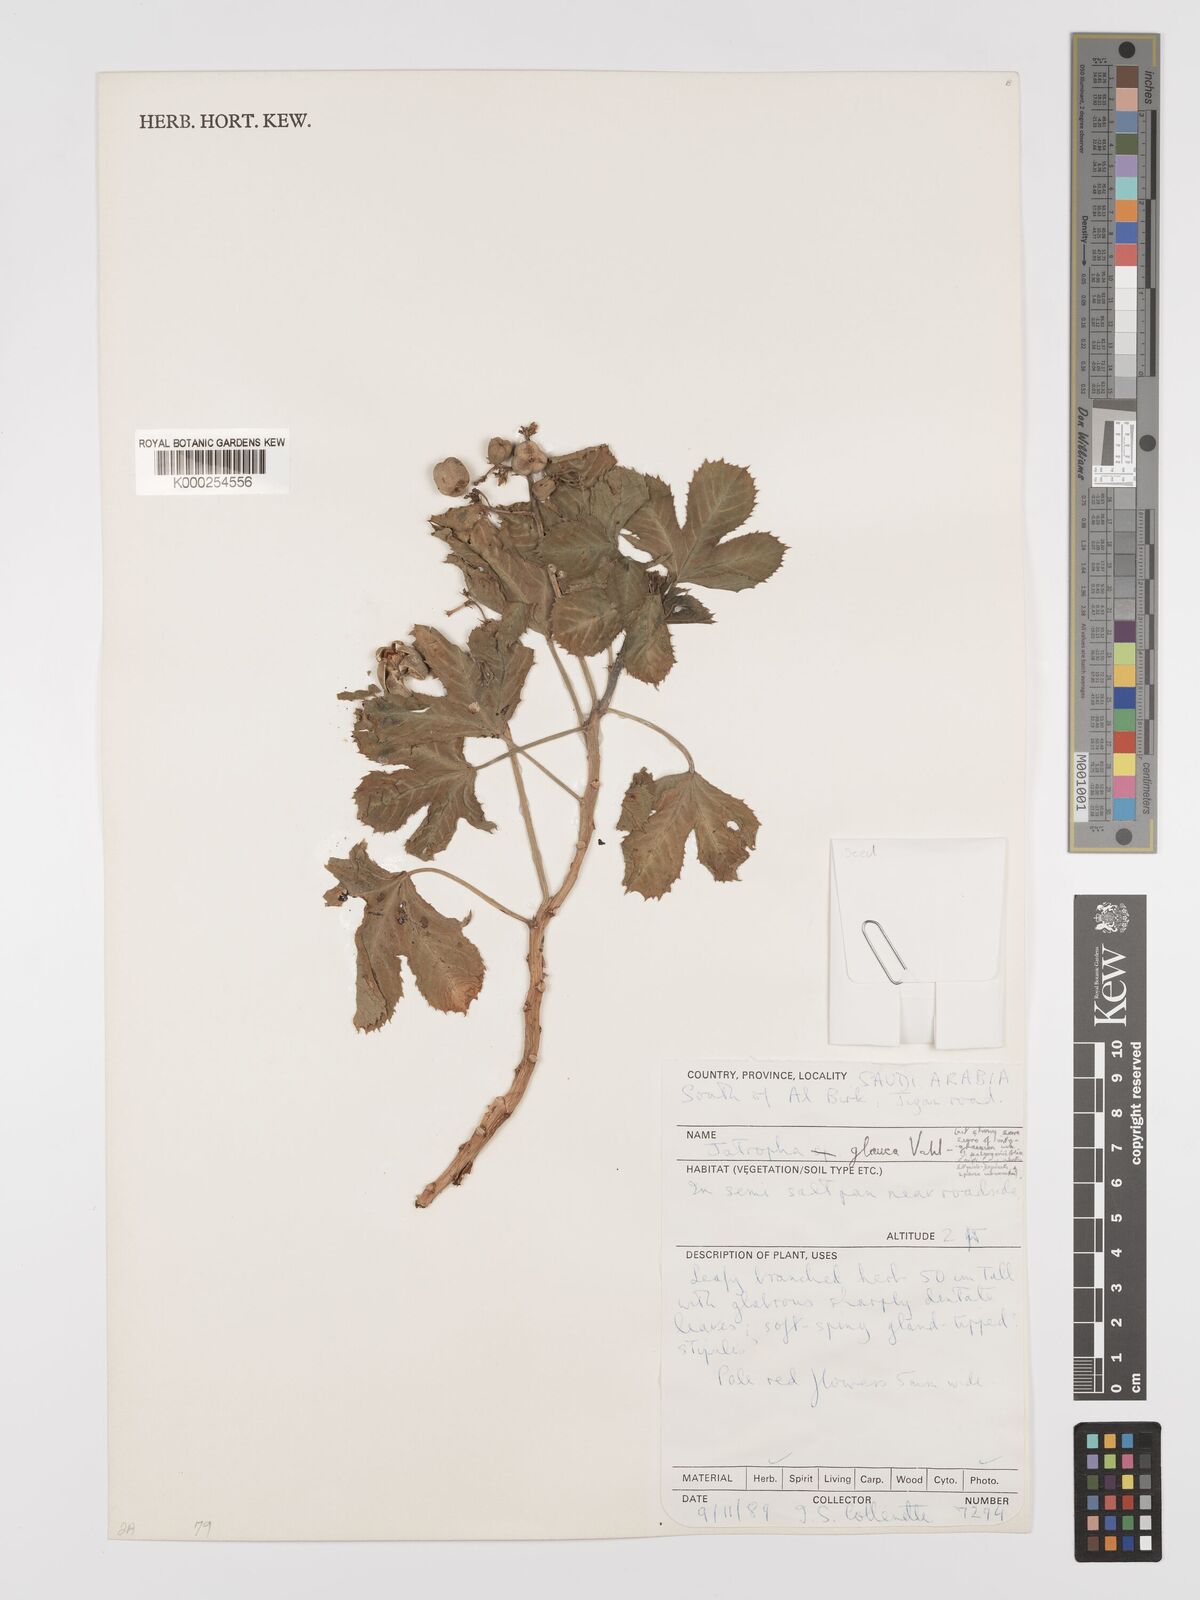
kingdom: Plantae
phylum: Tracheophyta
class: Magnoliopsida
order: Malpighiales
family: Euphorbiaceae
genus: Jatropha
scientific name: Jatropha glauca
